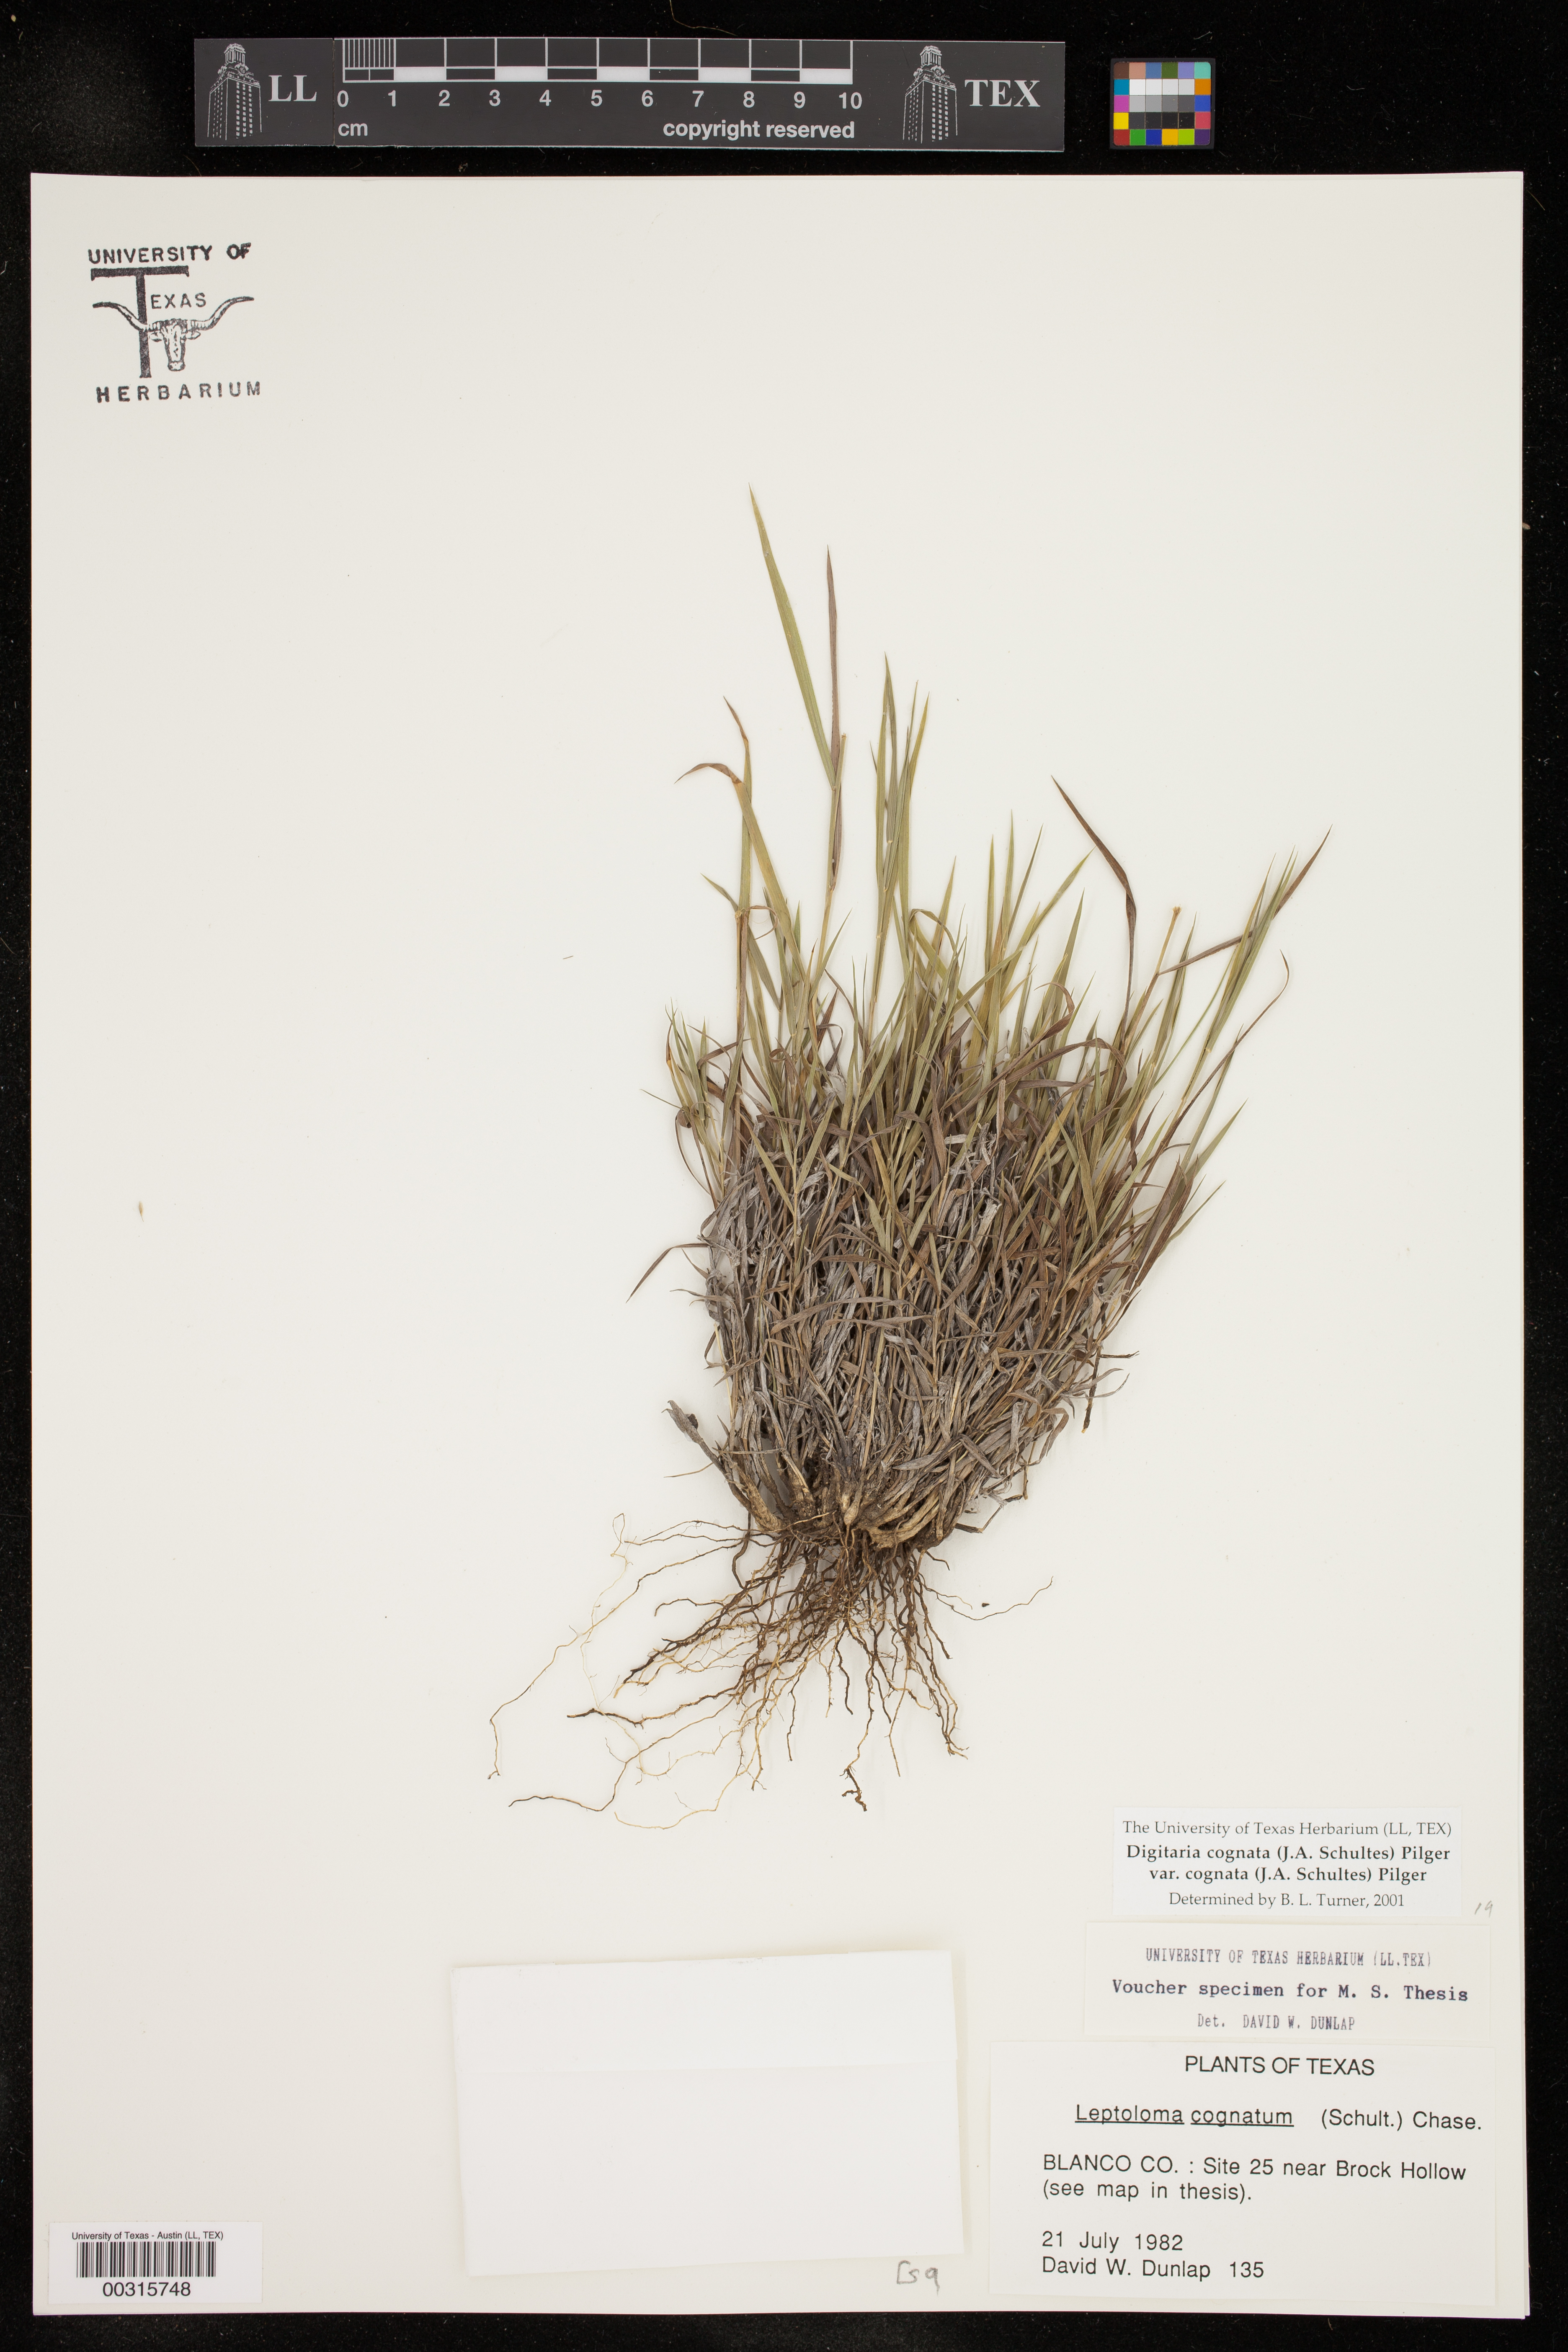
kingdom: Plantae
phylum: Tracheophyta
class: Liliopsida
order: Poales
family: Poaceae
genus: Digitaria
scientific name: Digitaria cognata
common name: Fall witchgrass
